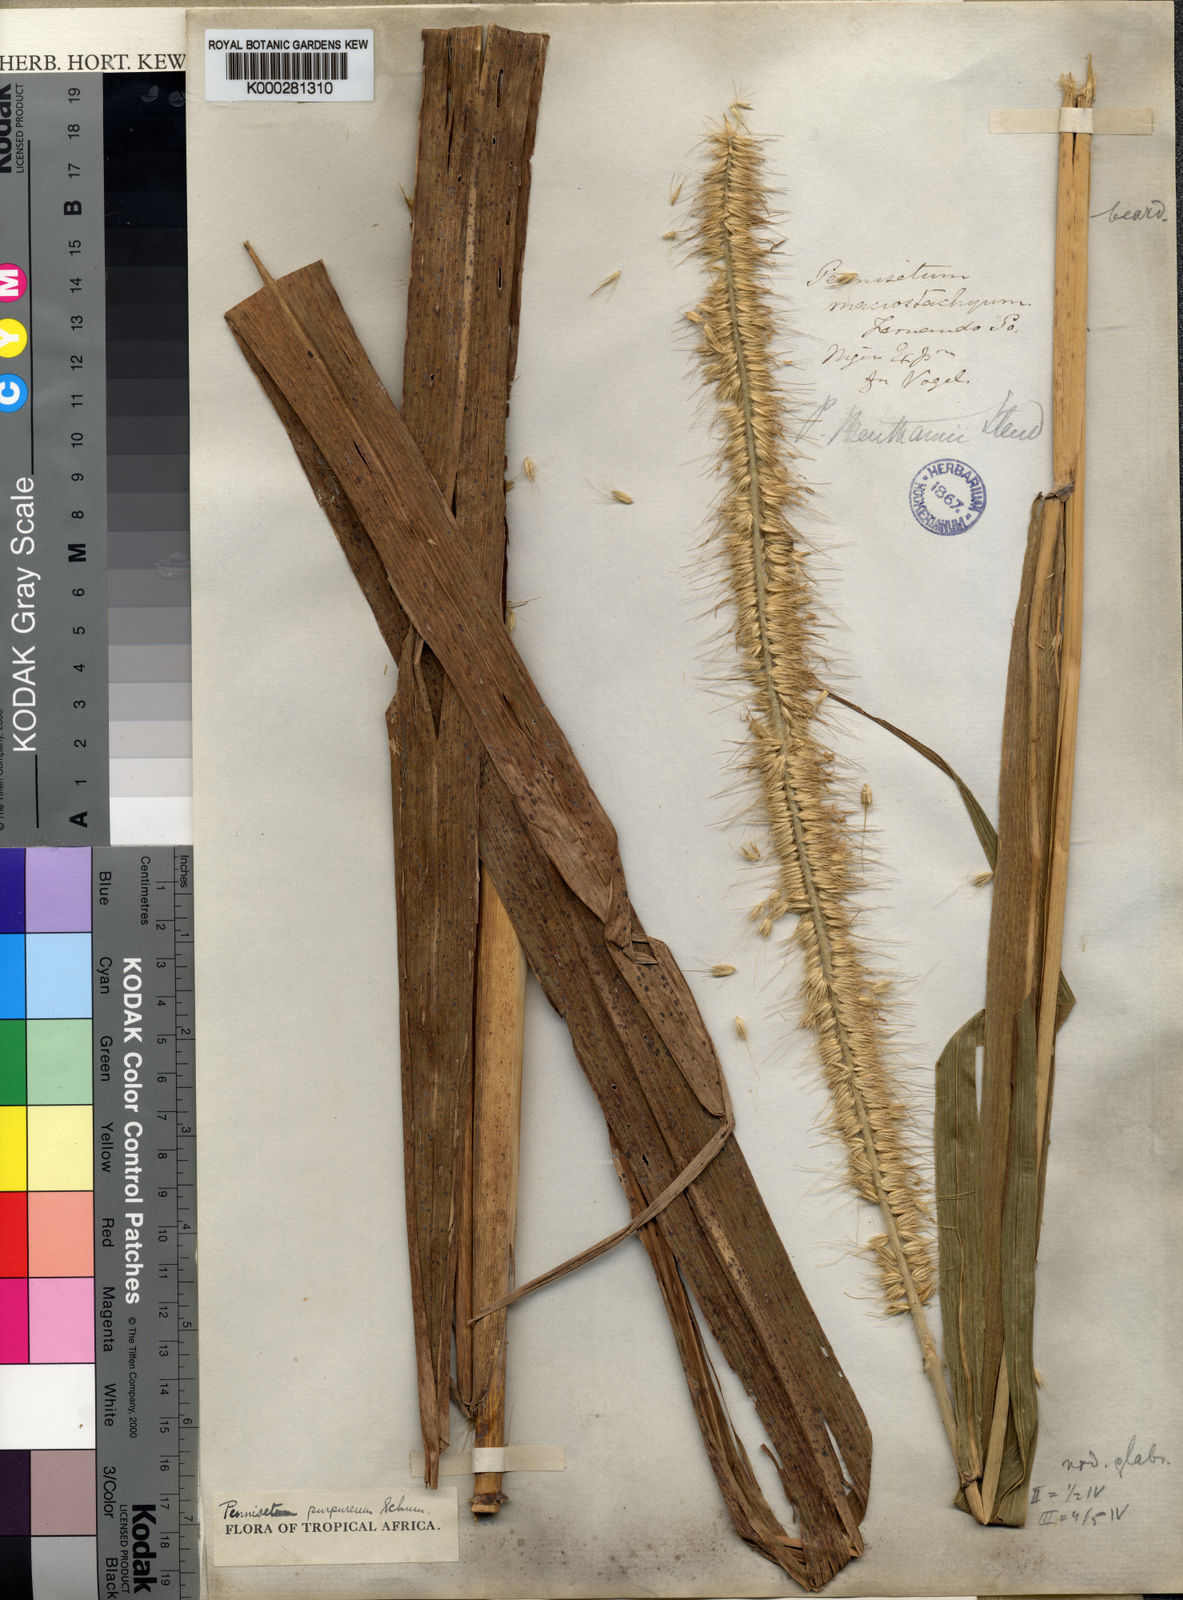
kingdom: Plantae
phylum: Tracheophyta
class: Liliopsida
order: Poales
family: Poaceae
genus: Cenchrus
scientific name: Cenchrus purpureus
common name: Elephant grass
